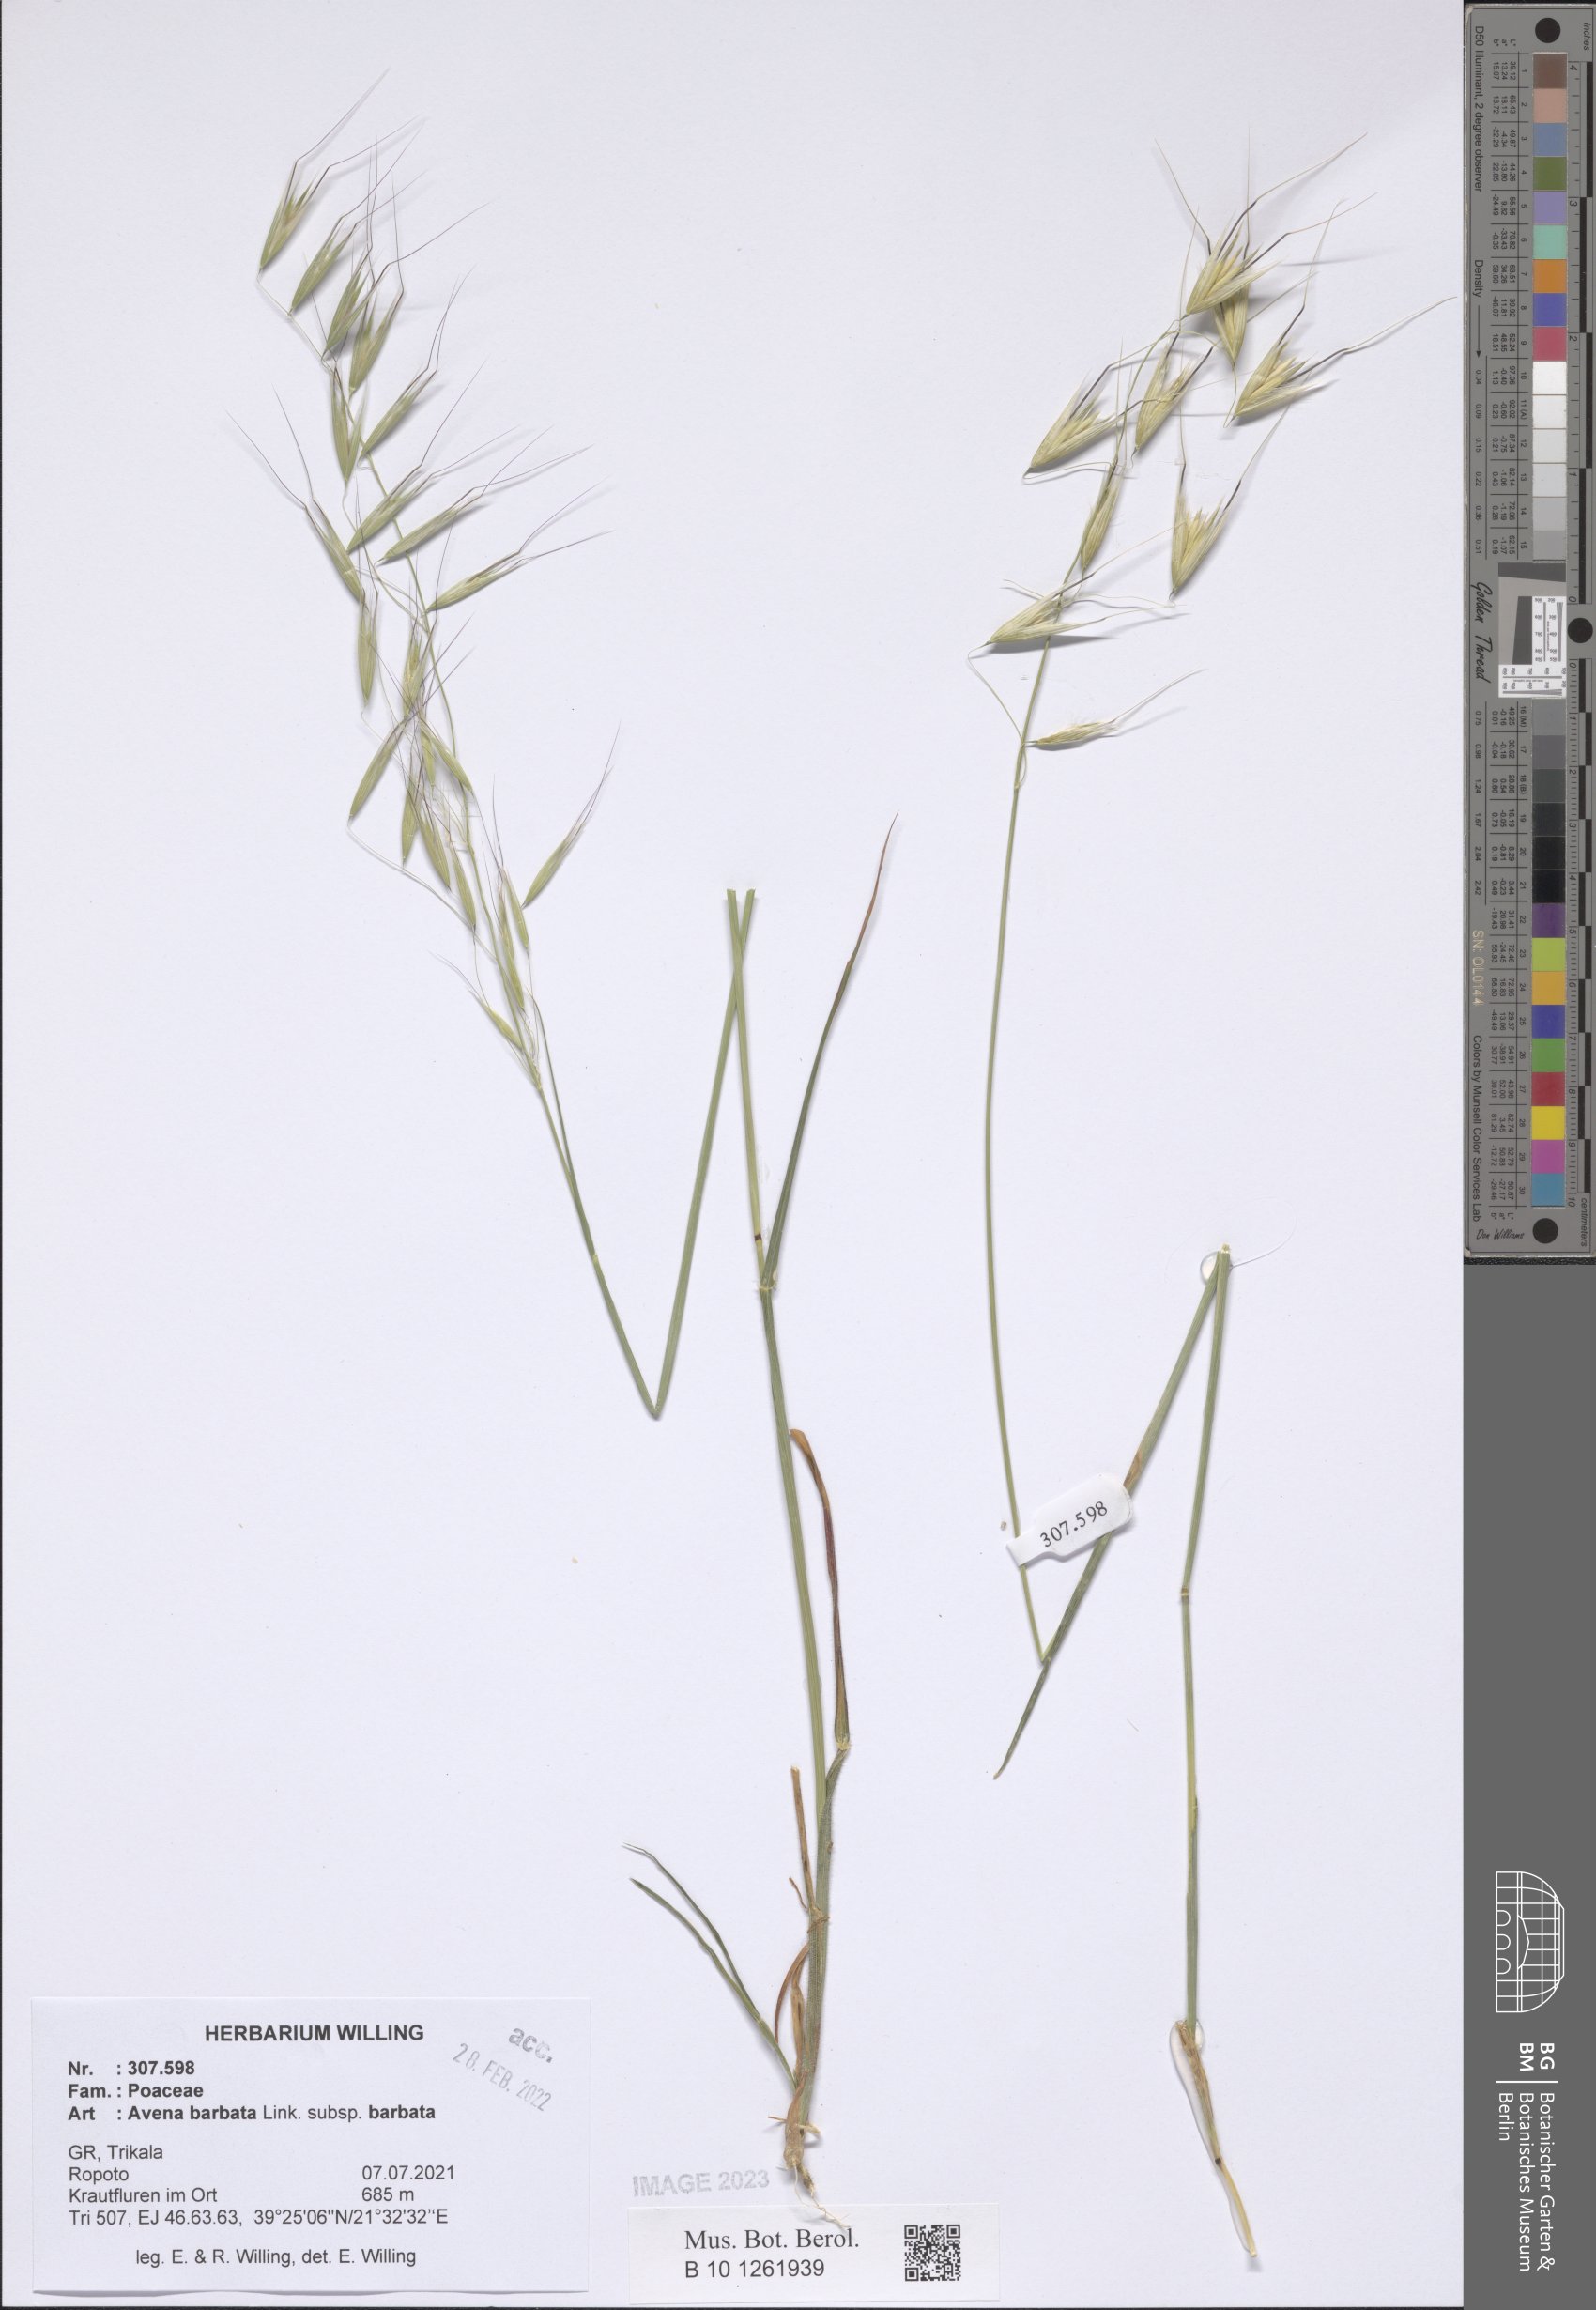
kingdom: Plantae
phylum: Tracheophyta
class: Liliopsida
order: Poales
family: Poaceae
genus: Avena
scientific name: Avena barbata
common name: Slender oat
